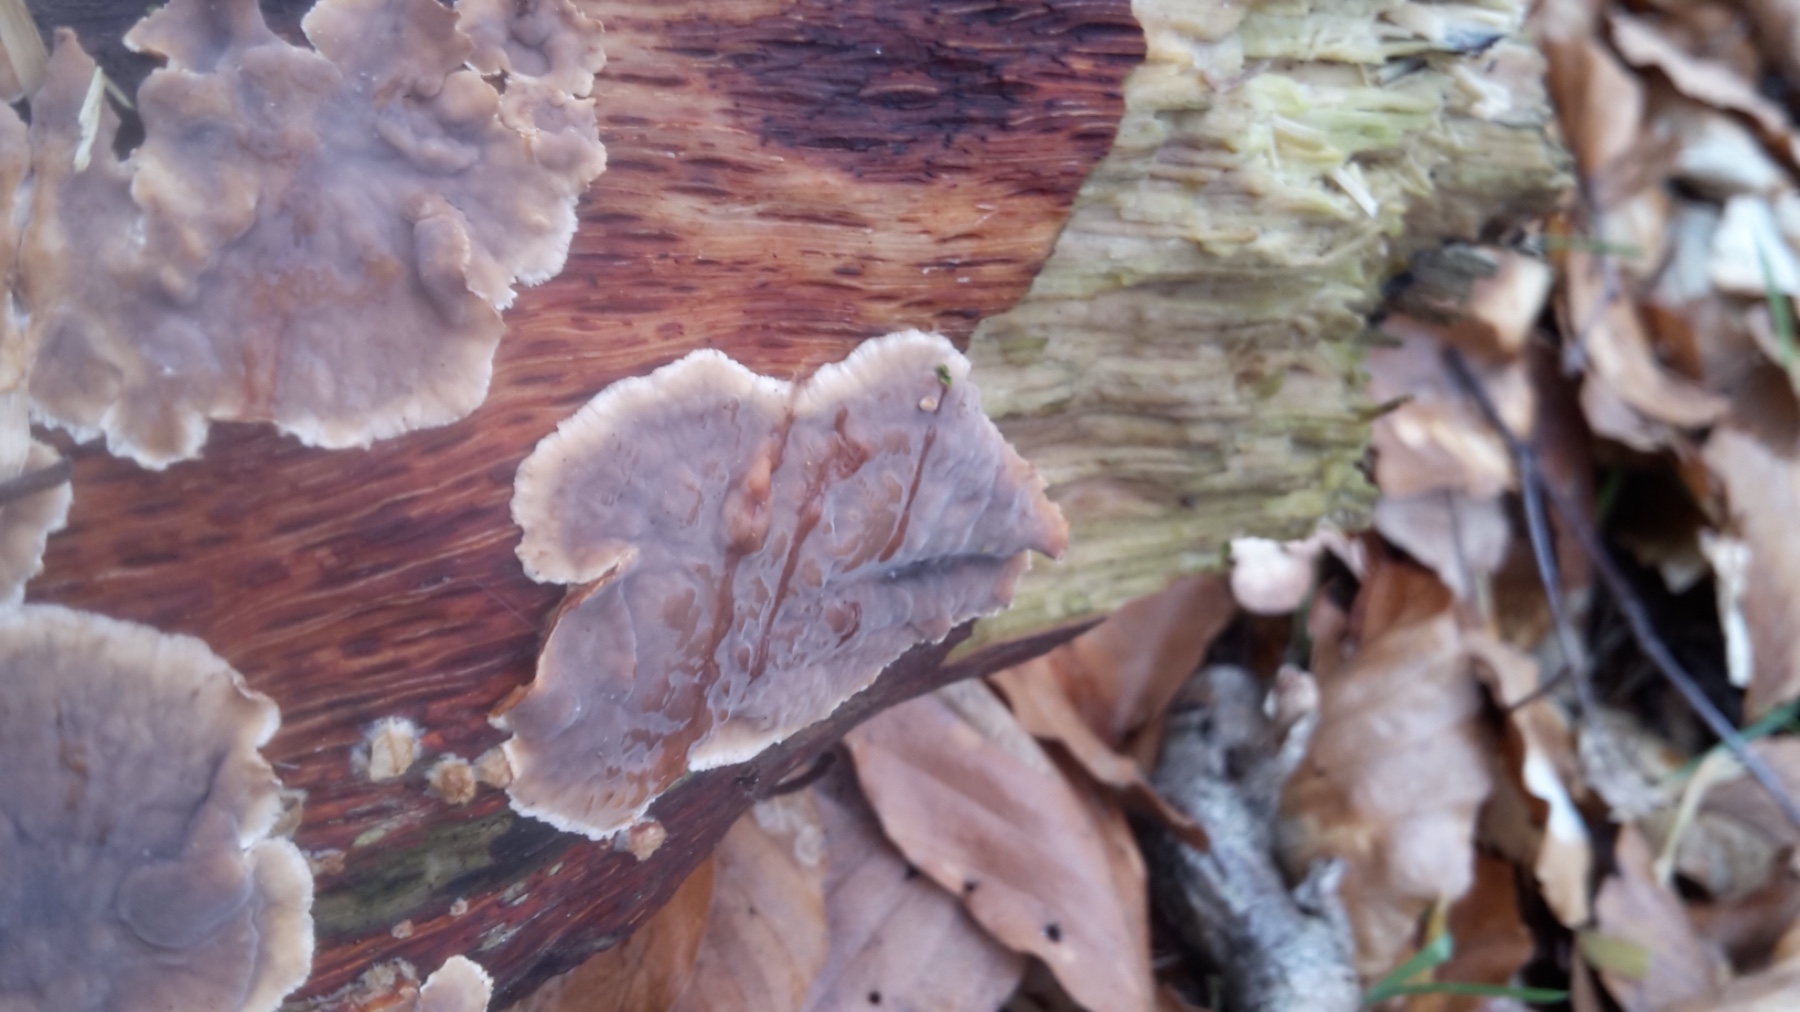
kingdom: Fungi
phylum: Basidiomycota
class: Agaricomycetes
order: Russulales
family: Stereaceae
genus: Stereum
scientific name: Stereum
